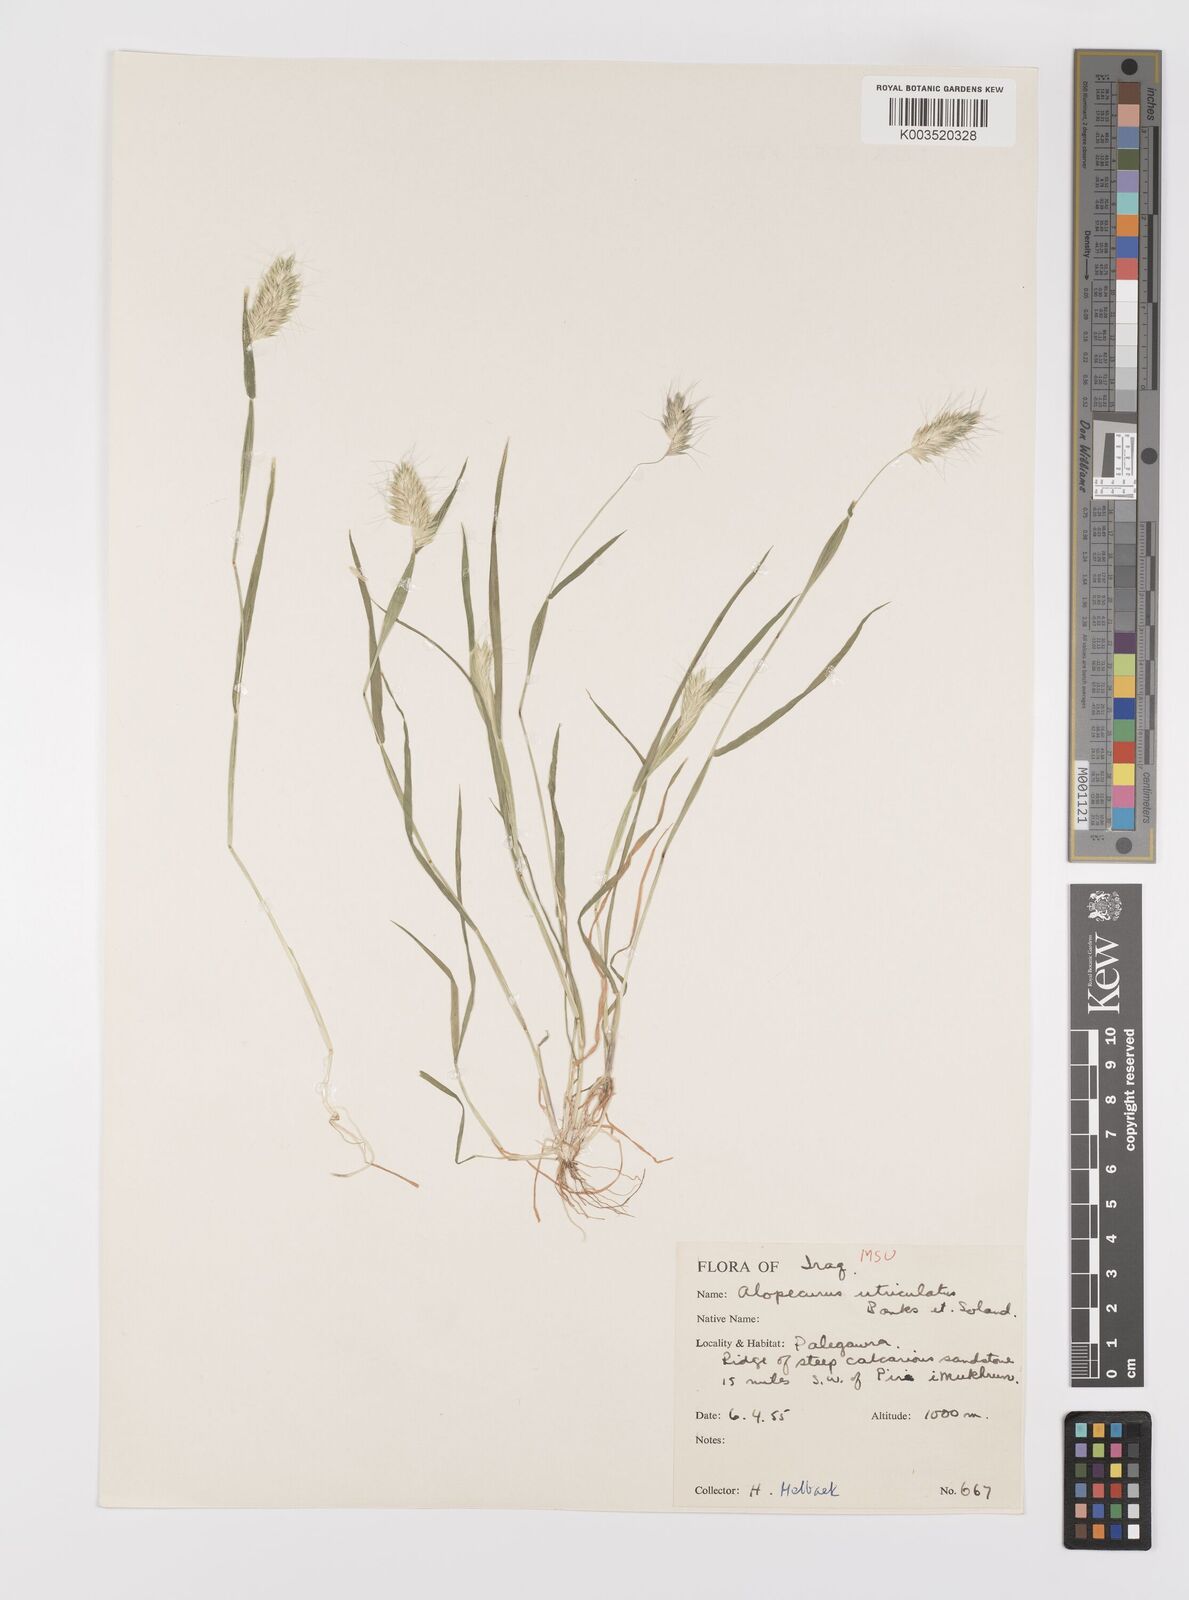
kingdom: Plantae
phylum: Tracheophyta
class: Liliopsida
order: Poales
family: Poaceae
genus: Alopecurus
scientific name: Alopecurus utriculatus
